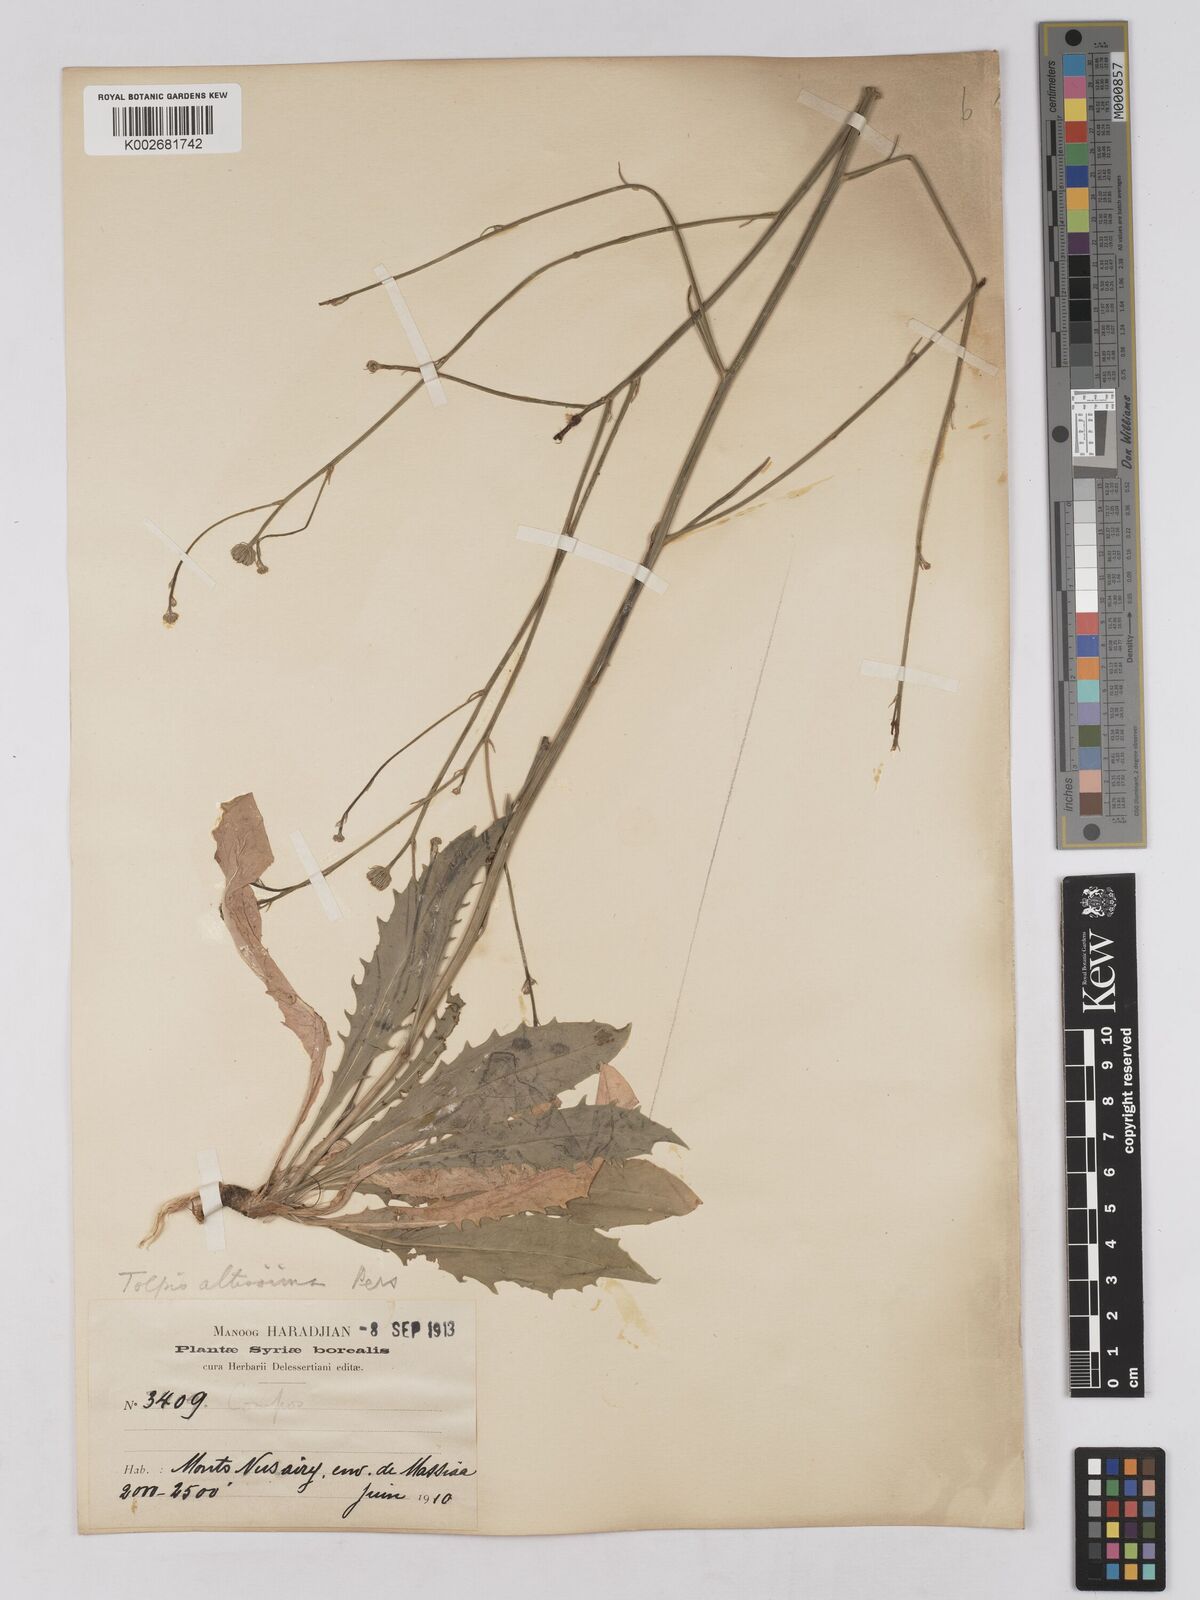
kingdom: Plantae
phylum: Tracheophyta
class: Magnoliopsida
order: Asterales
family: Asteraceae
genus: Tolpis
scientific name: Tolpis virgata
